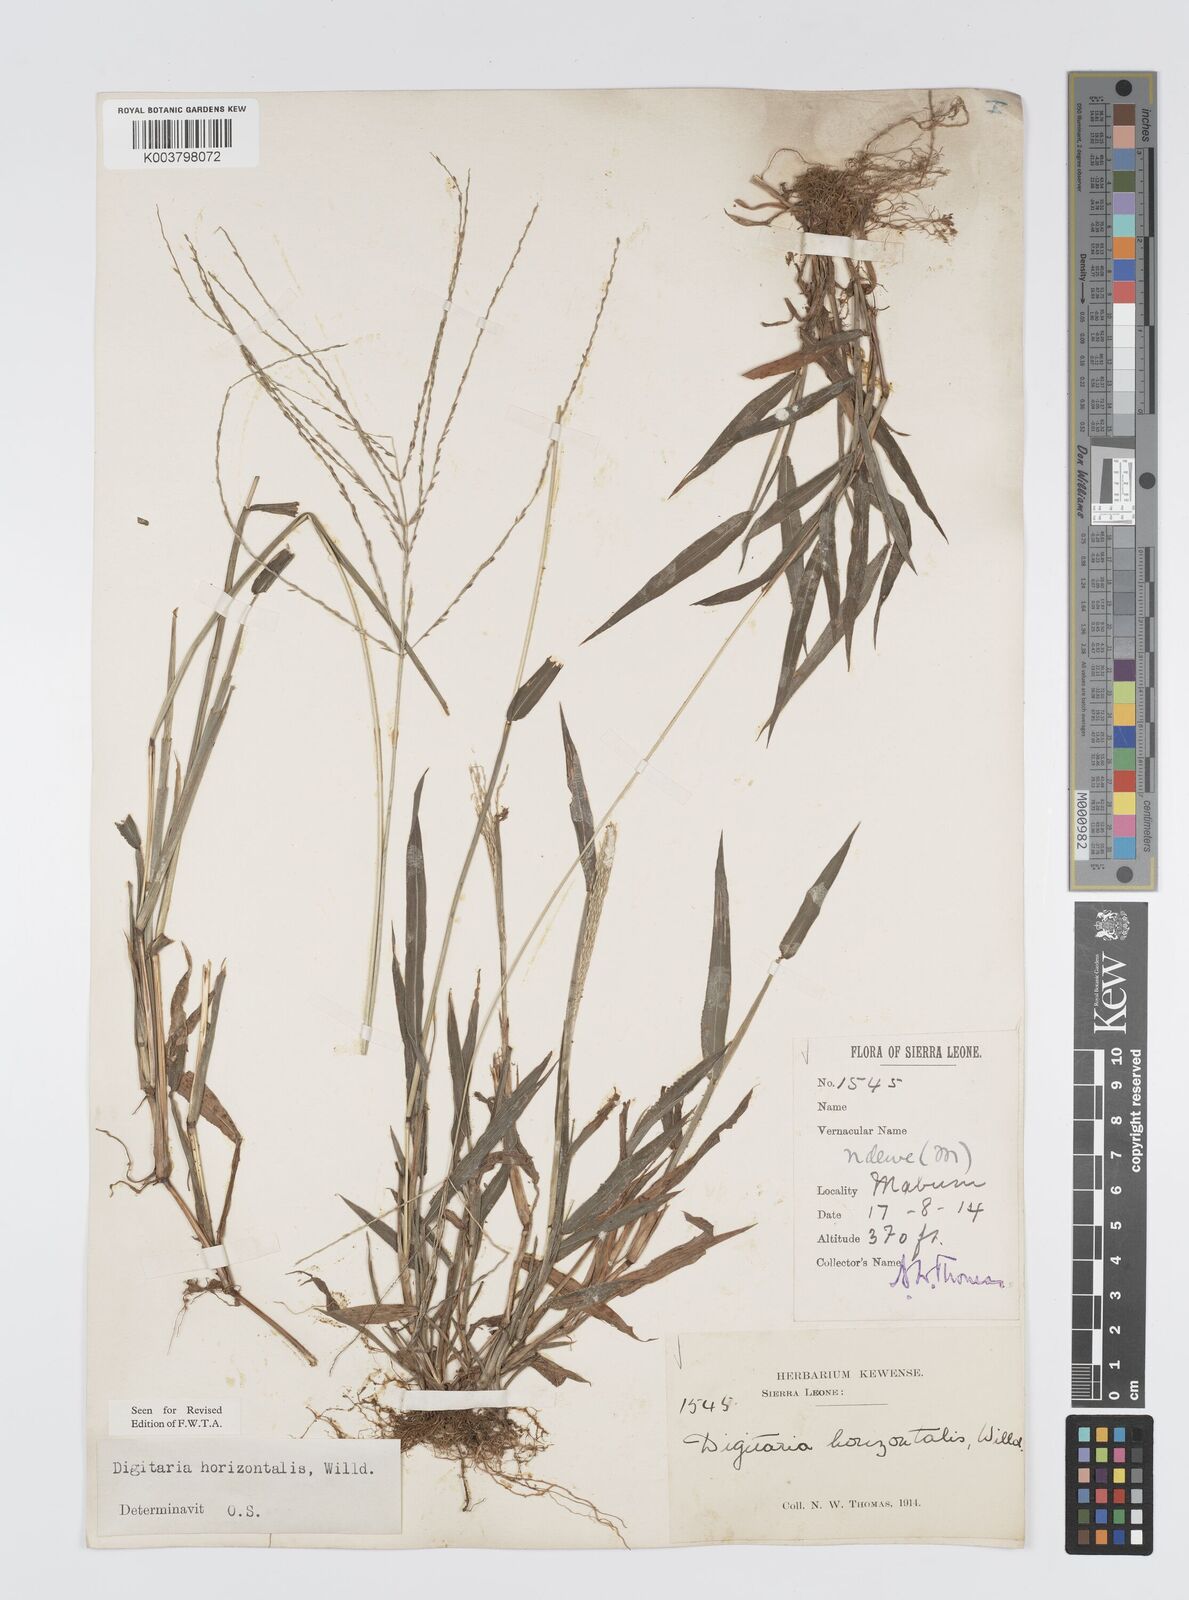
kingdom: Plantae
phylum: Tracheophyta
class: Liliopsida
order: Poales
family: Poaceae
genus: Digitaria
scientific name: Digitaria horizontalis
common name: Jamaican crabgrass
